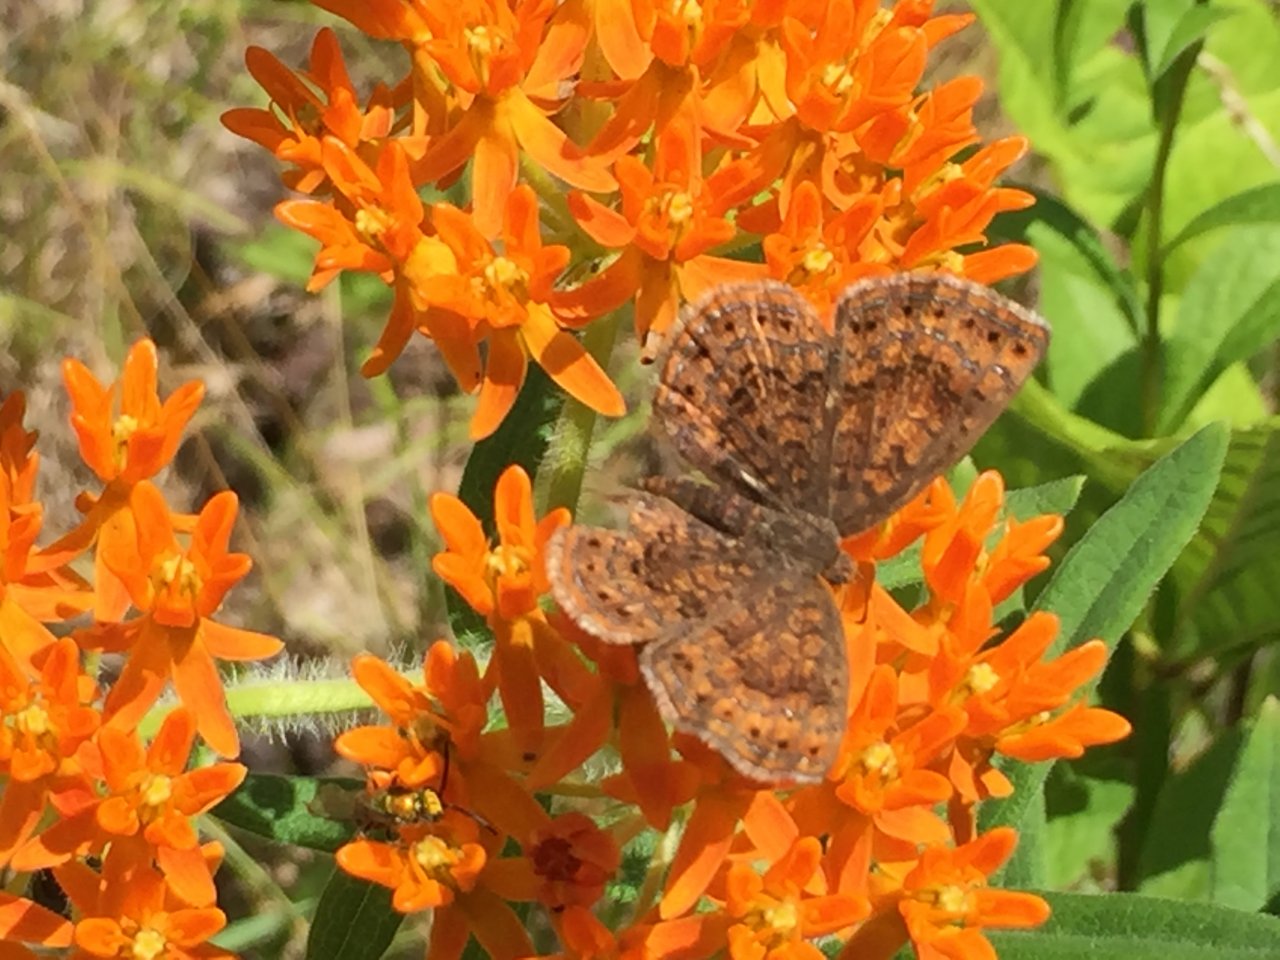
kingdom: Animalia
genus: Calephelis
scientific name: Calephelis borealis
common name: Northern Metalmark
